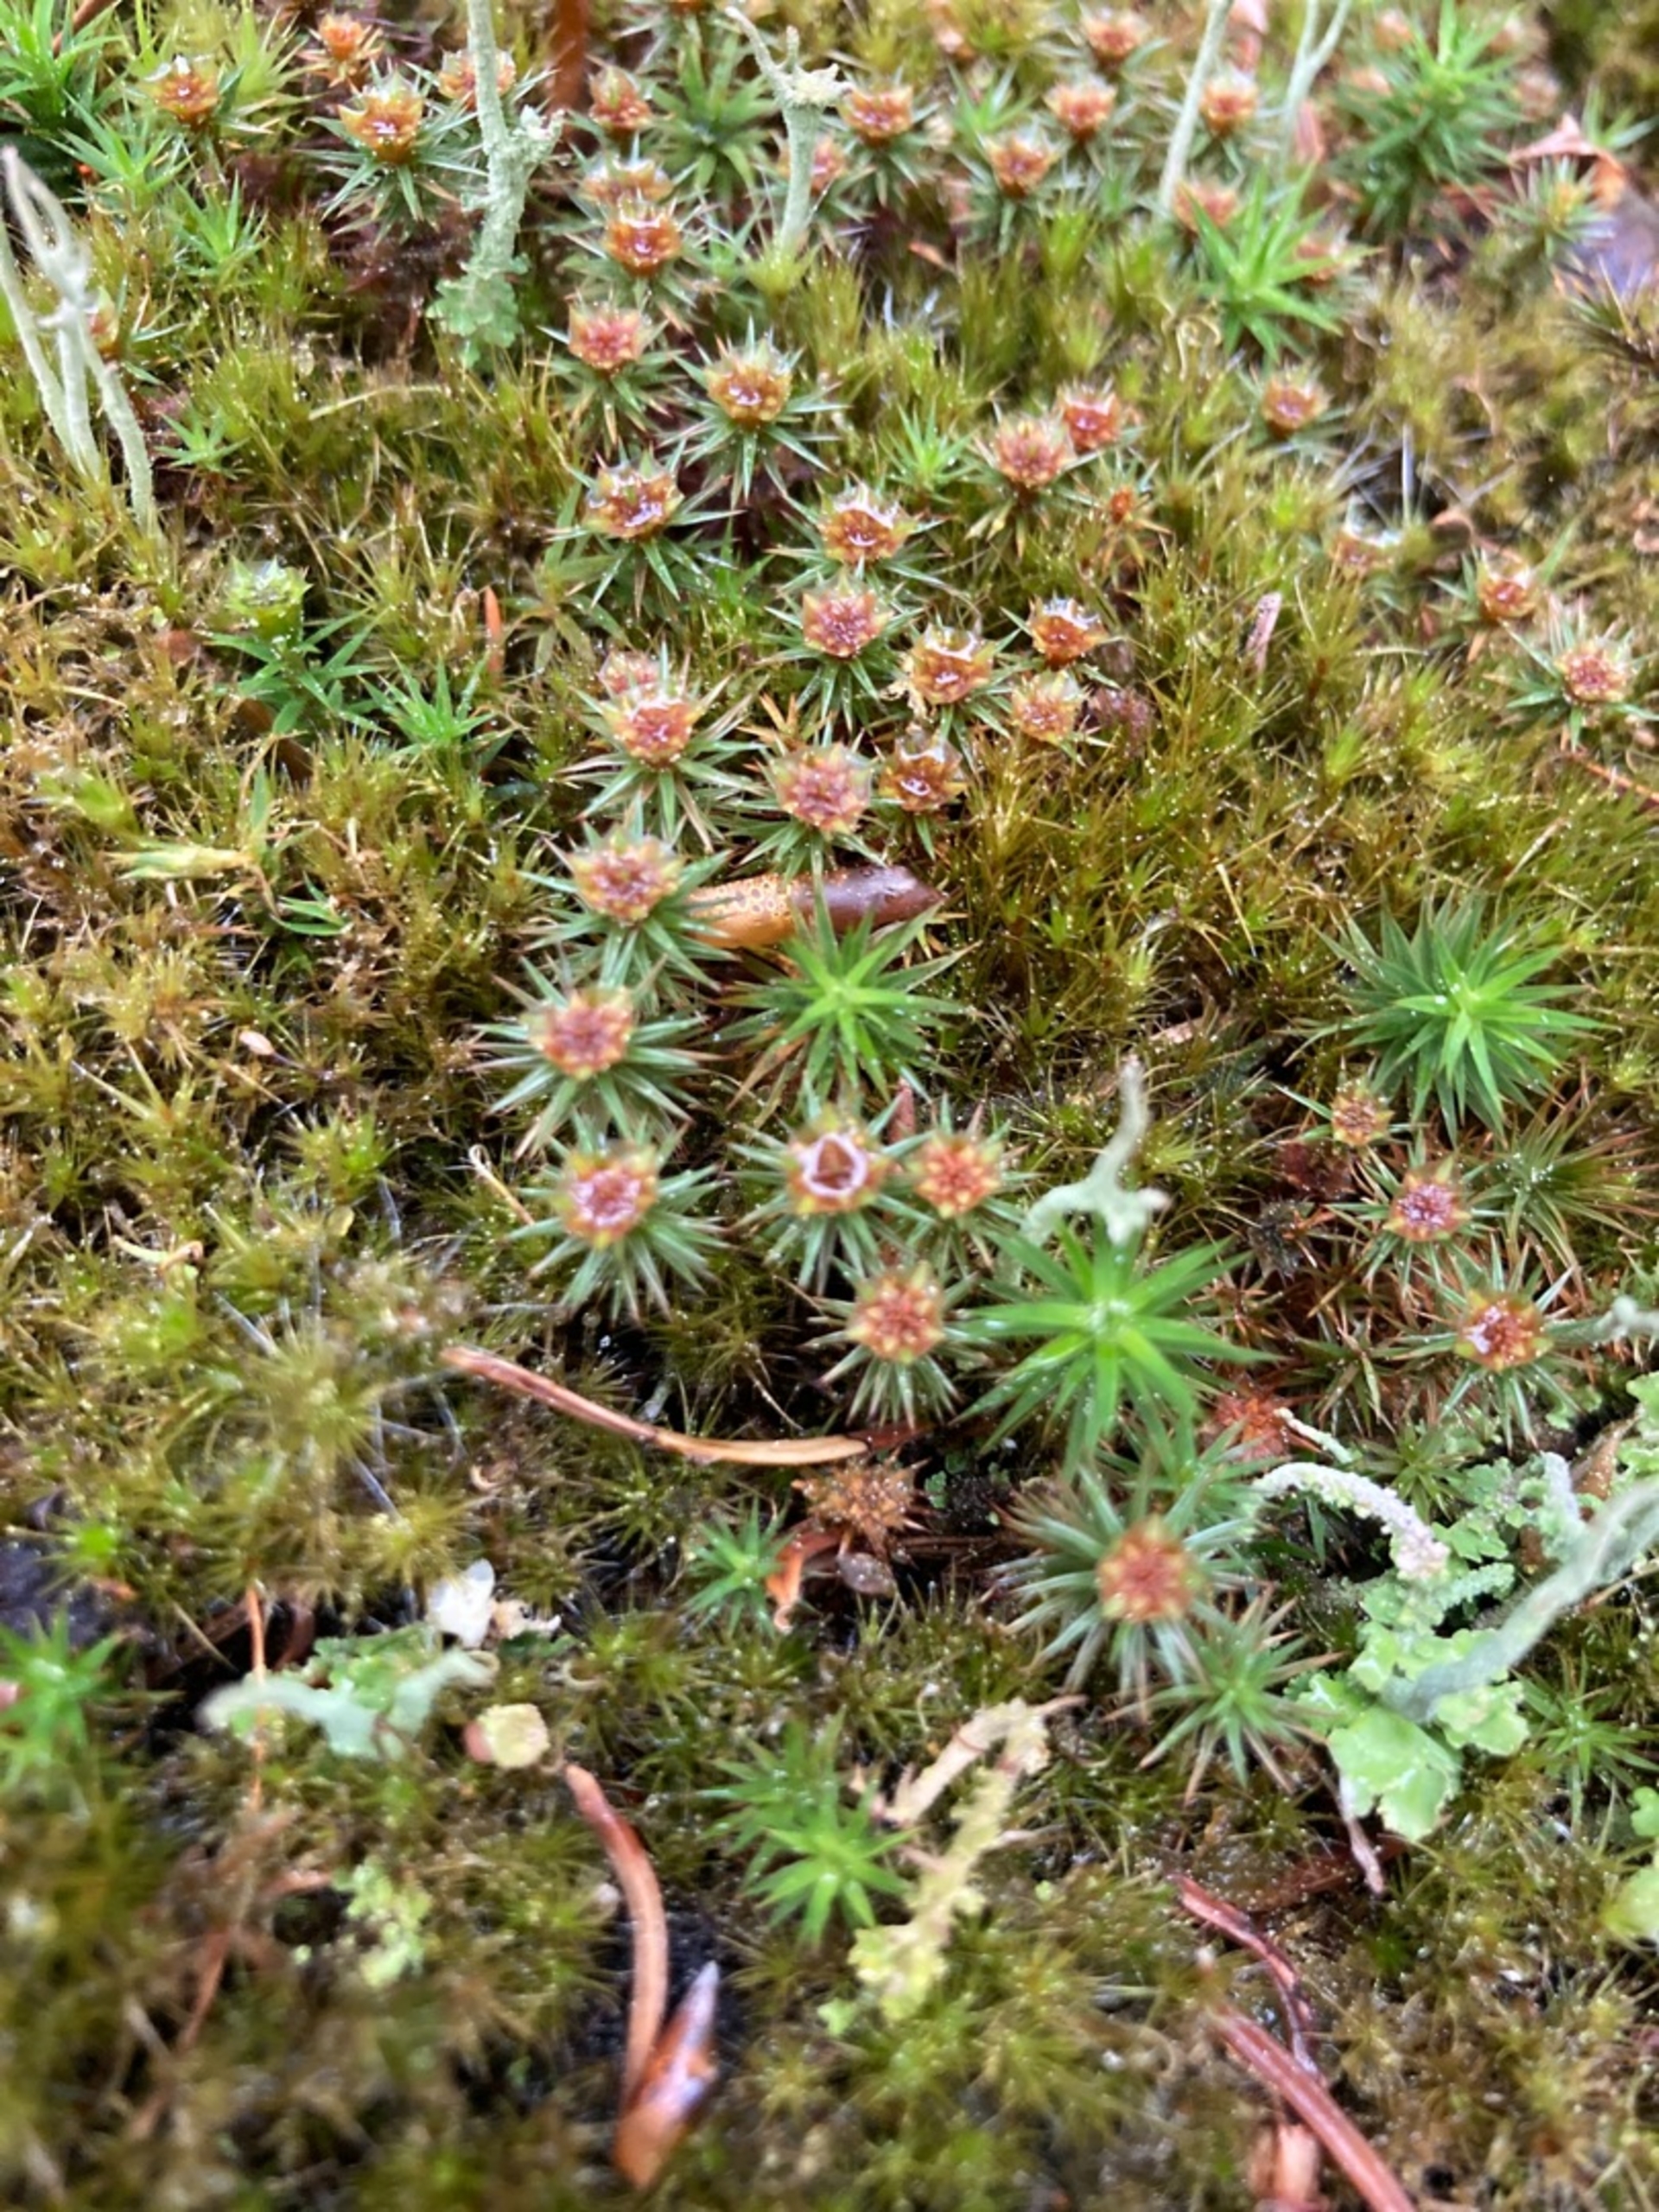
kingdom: Plantae
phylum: Bryophyta
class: Polytrichopsida
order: Polytrichales
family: Polytrichaceae
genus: Polytrichum
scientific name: Polytrichum juniperinum
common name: Ene-jomfruhår
